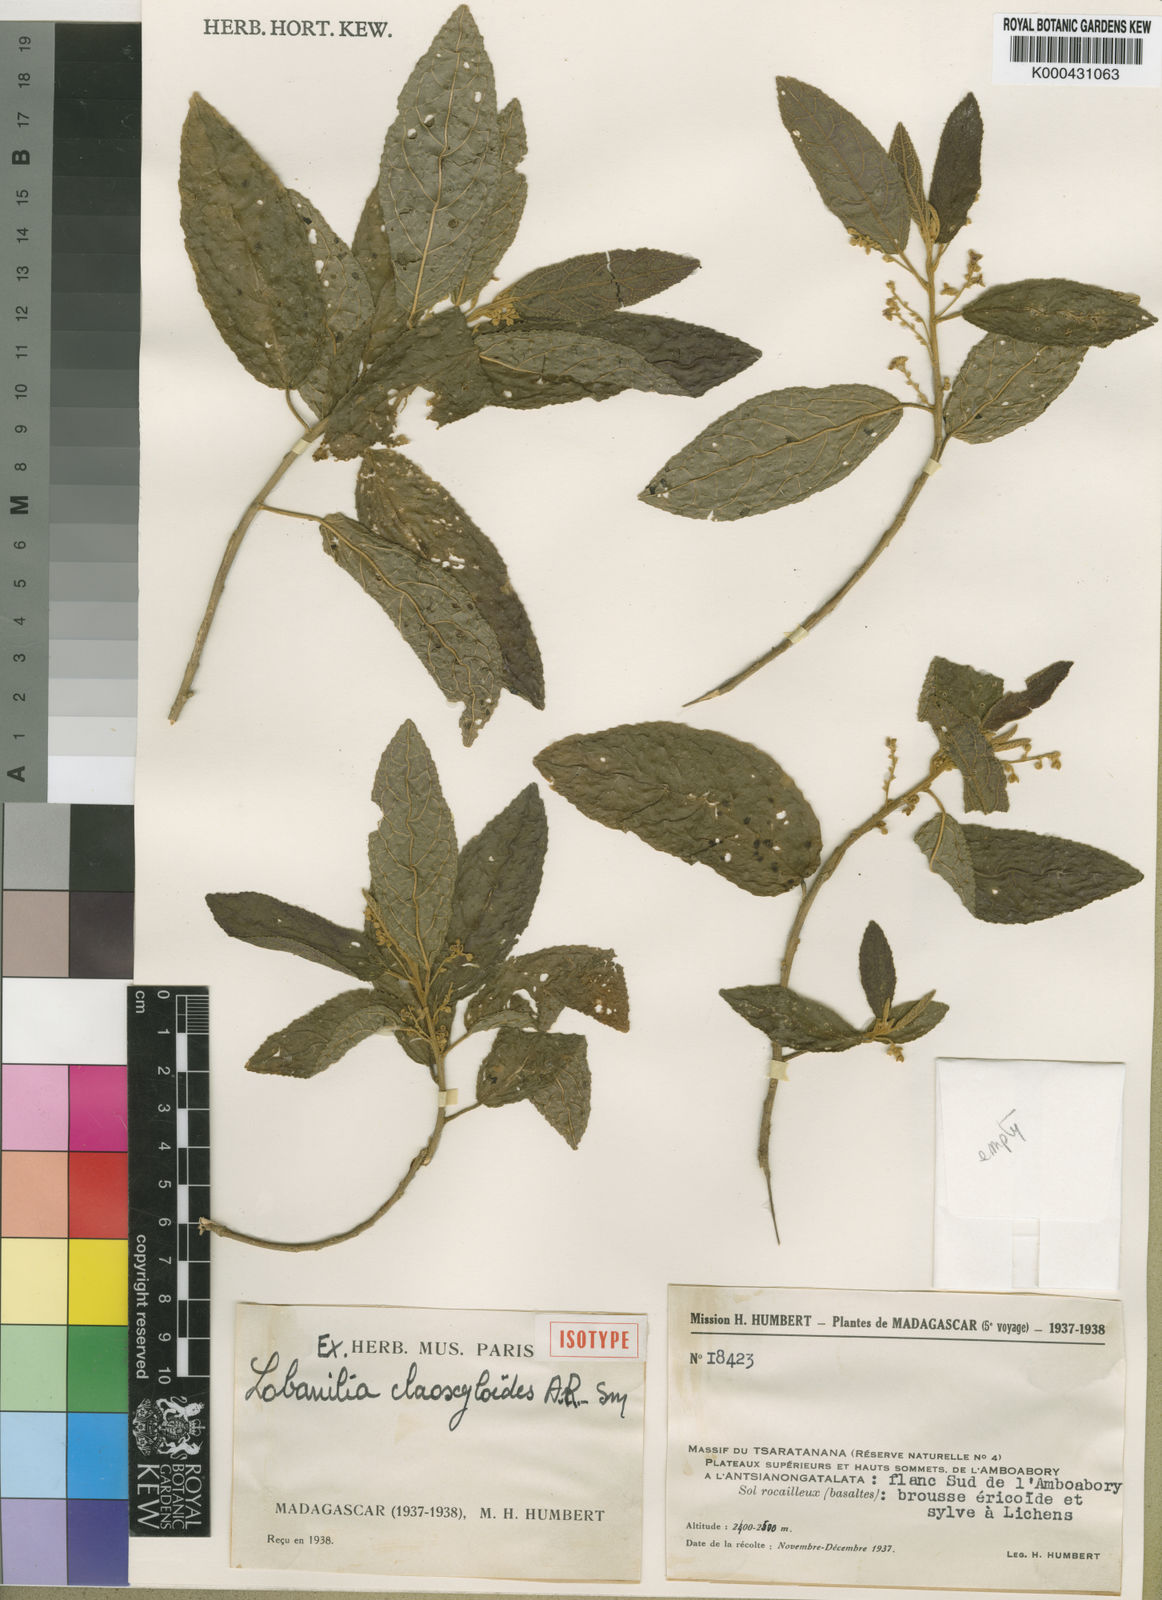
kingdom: Plantae
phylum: Tracheophyta
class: Magnoliopsida
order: Malpighiales
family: Euphorbiaceae
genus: Lobanilia
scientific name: Lobanilia claoxyloides
